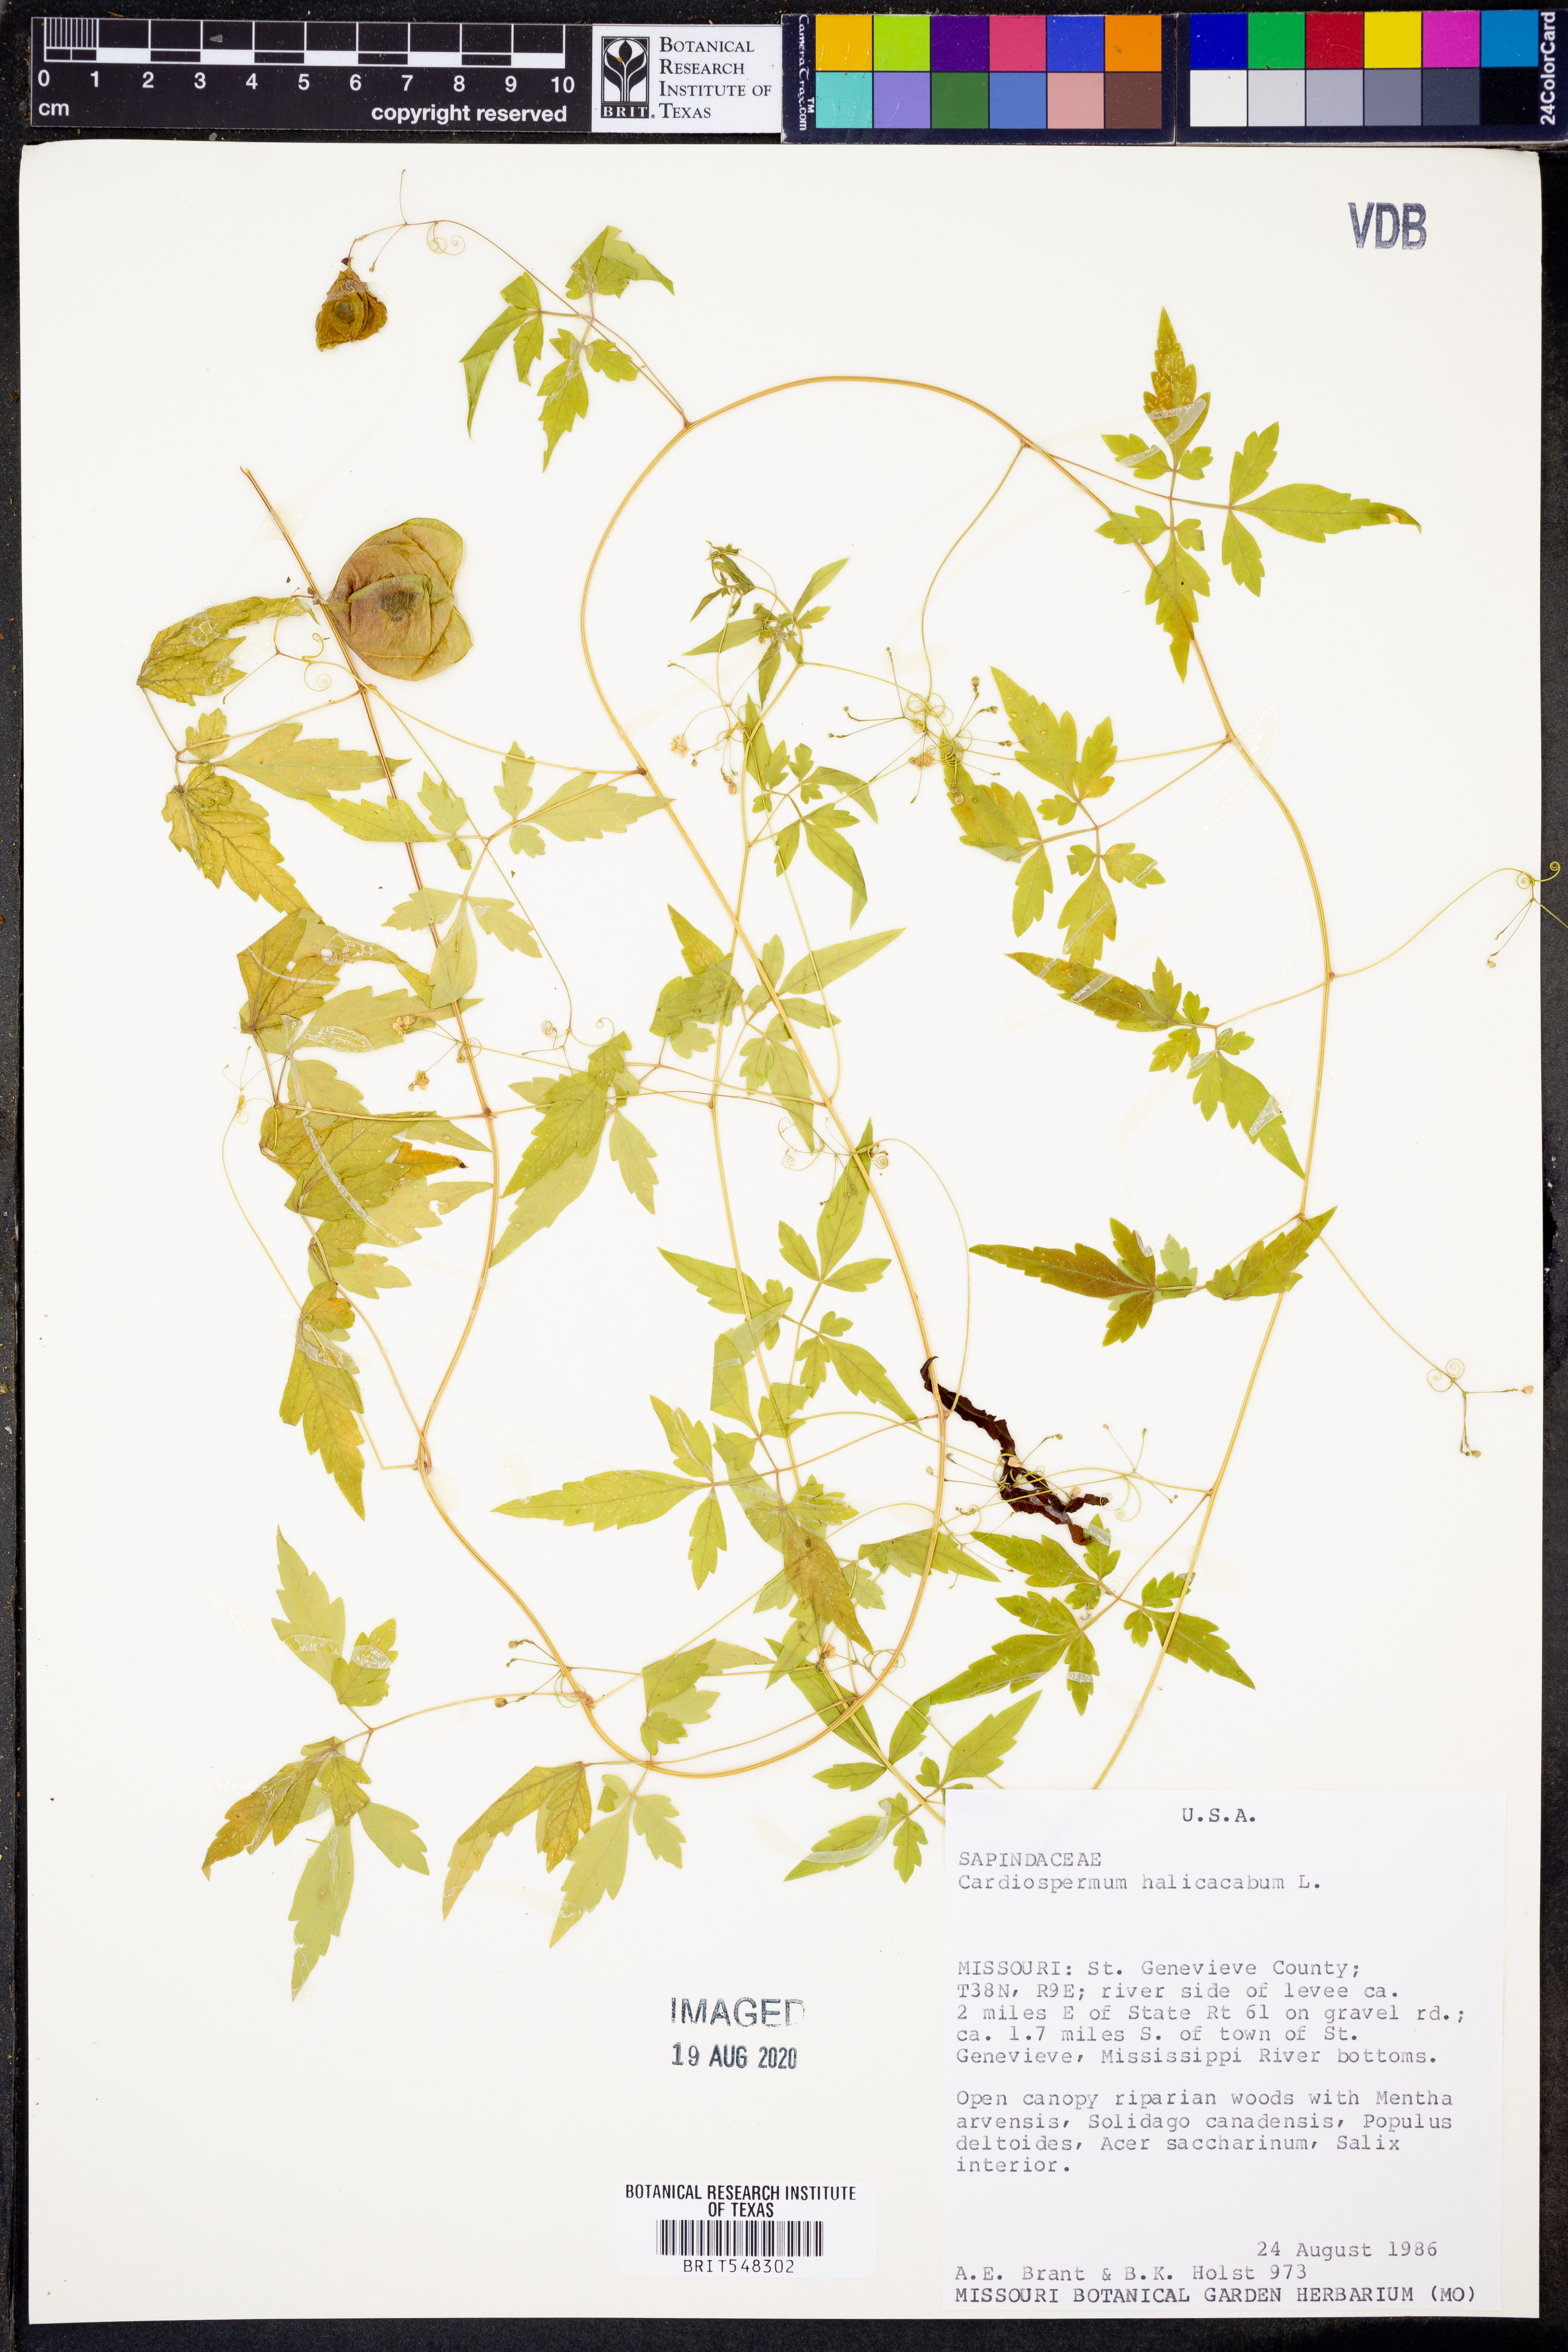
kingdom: Plantae
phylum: Tracheophyta
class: Magnoliopsida
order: Sapindales
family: Sapindaceae
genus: Cardiospermum
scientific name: Cardiospermum halicacabum
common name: Balloon vine
